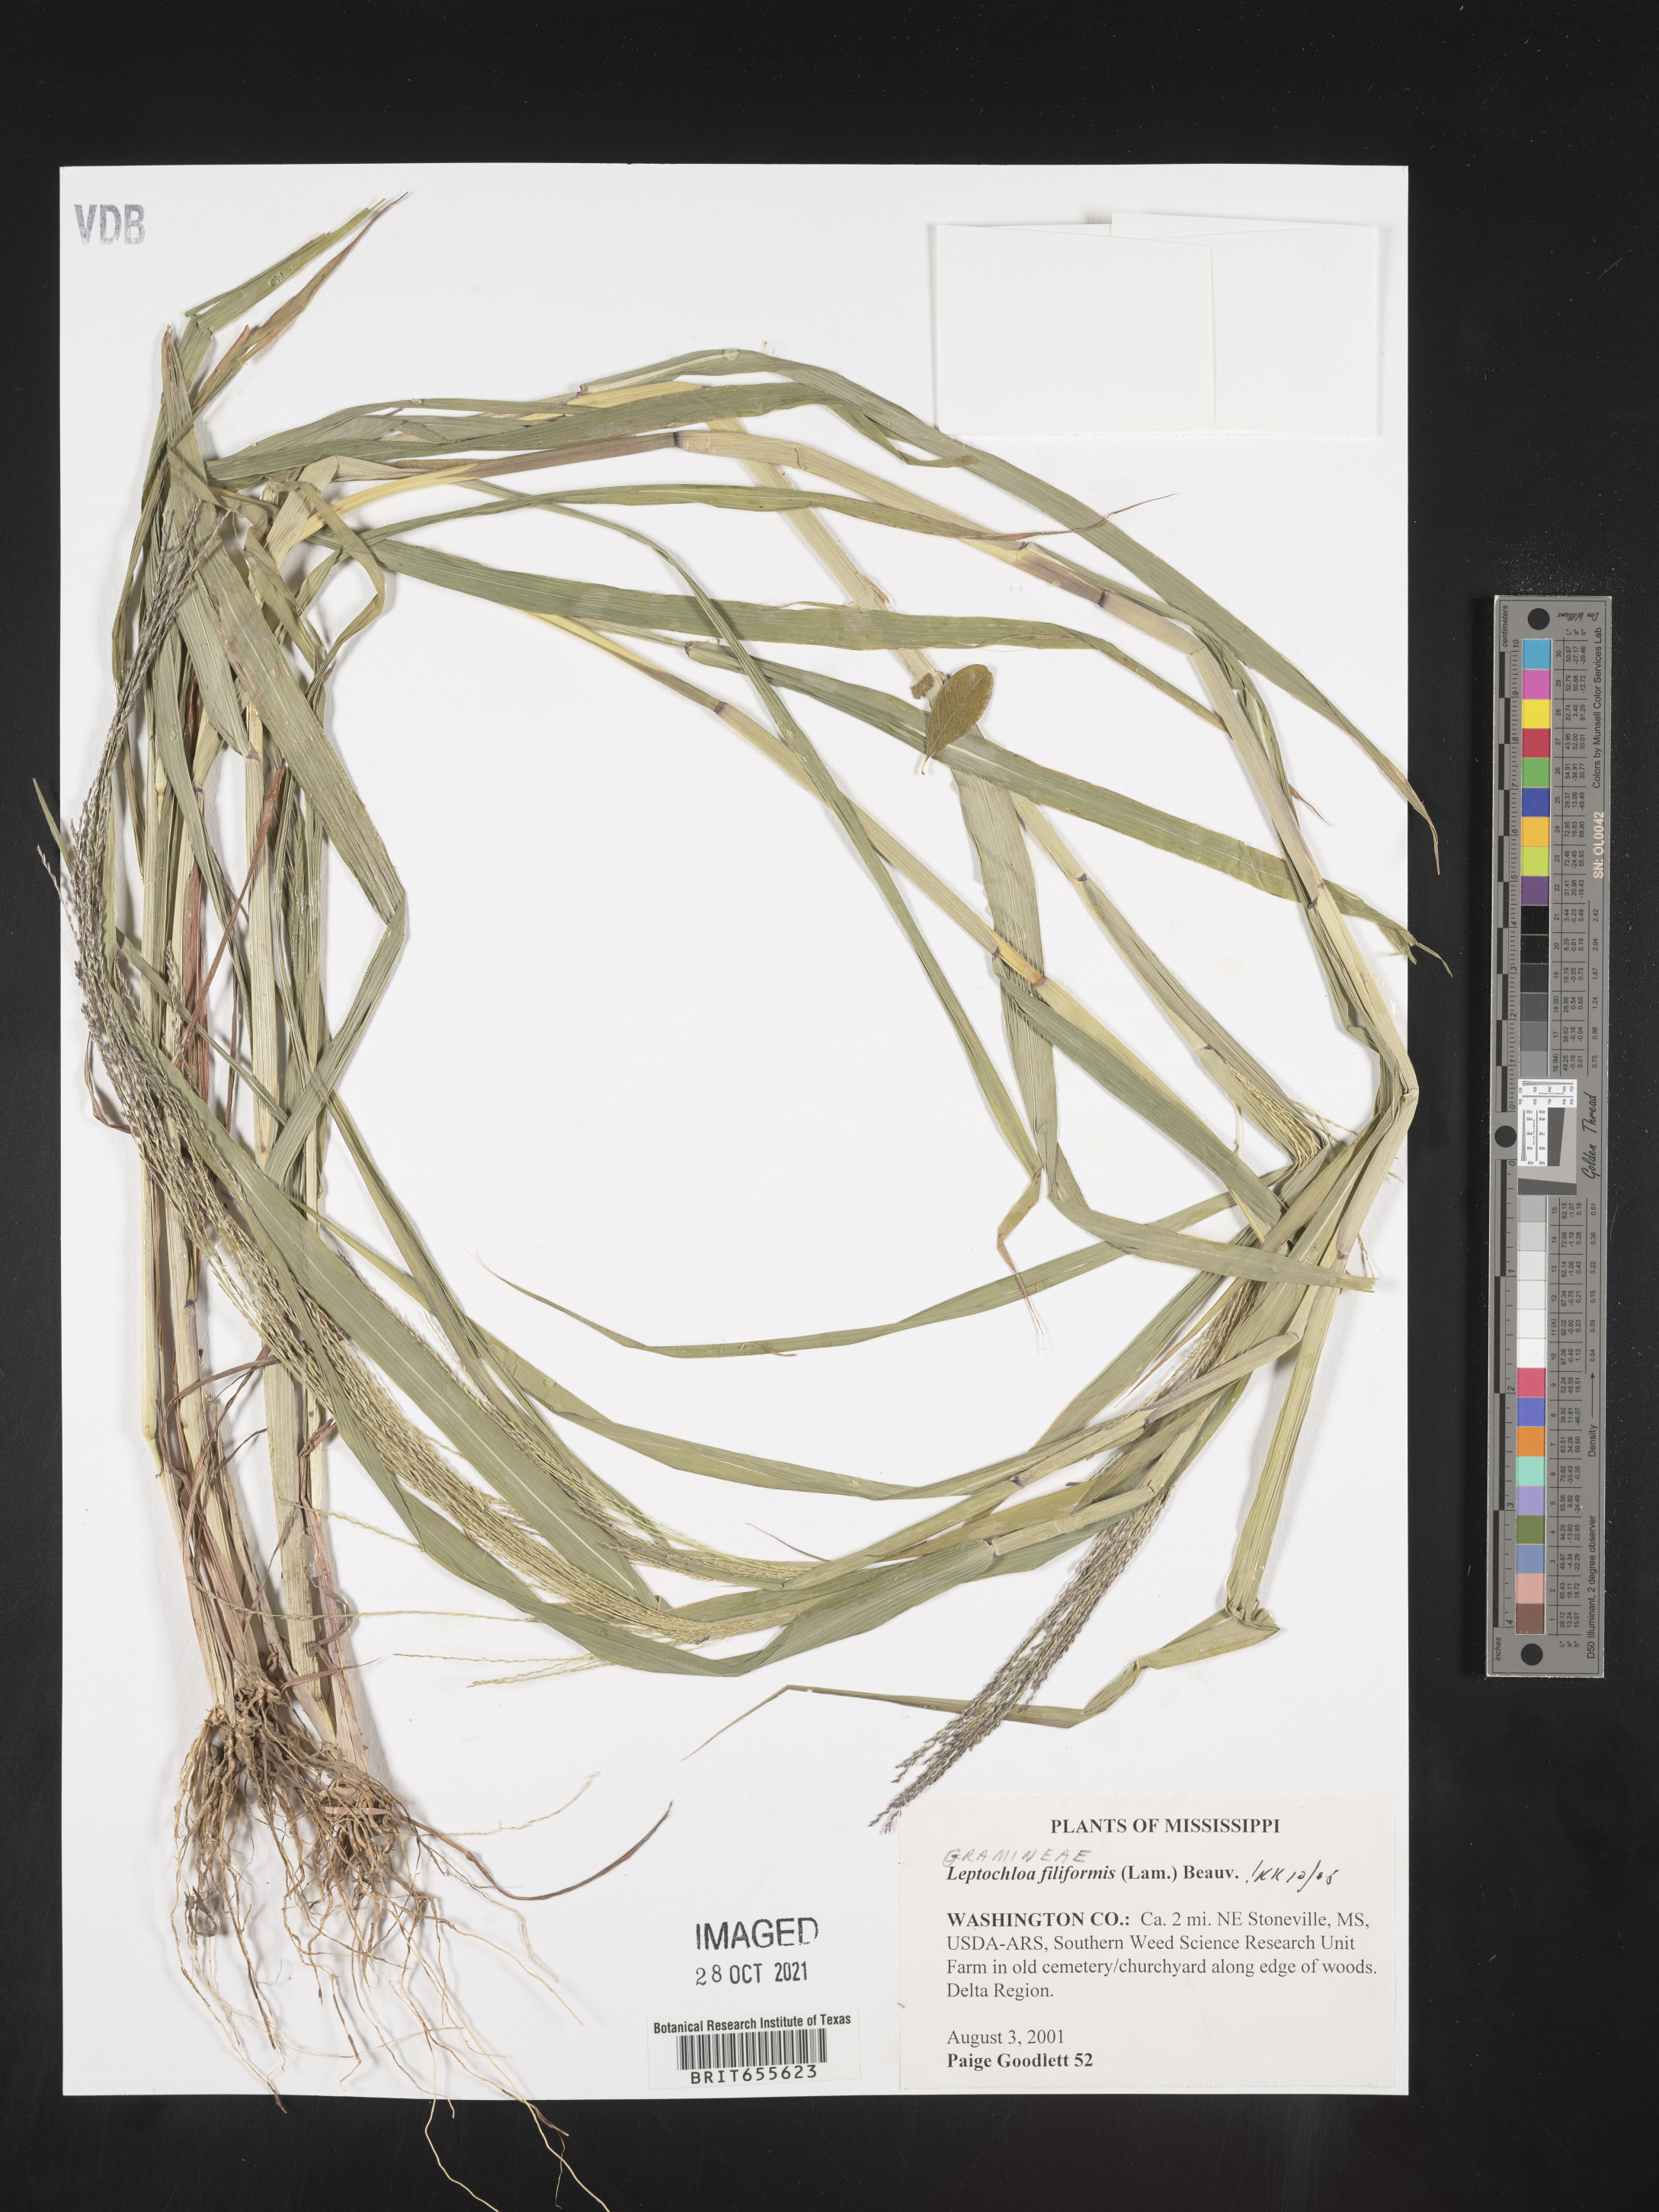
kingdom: Plantae
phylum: Tracheophyta
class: Liliopsida
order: Poales
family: Poaceae
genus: Leptochloa
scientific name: Leptochloa
